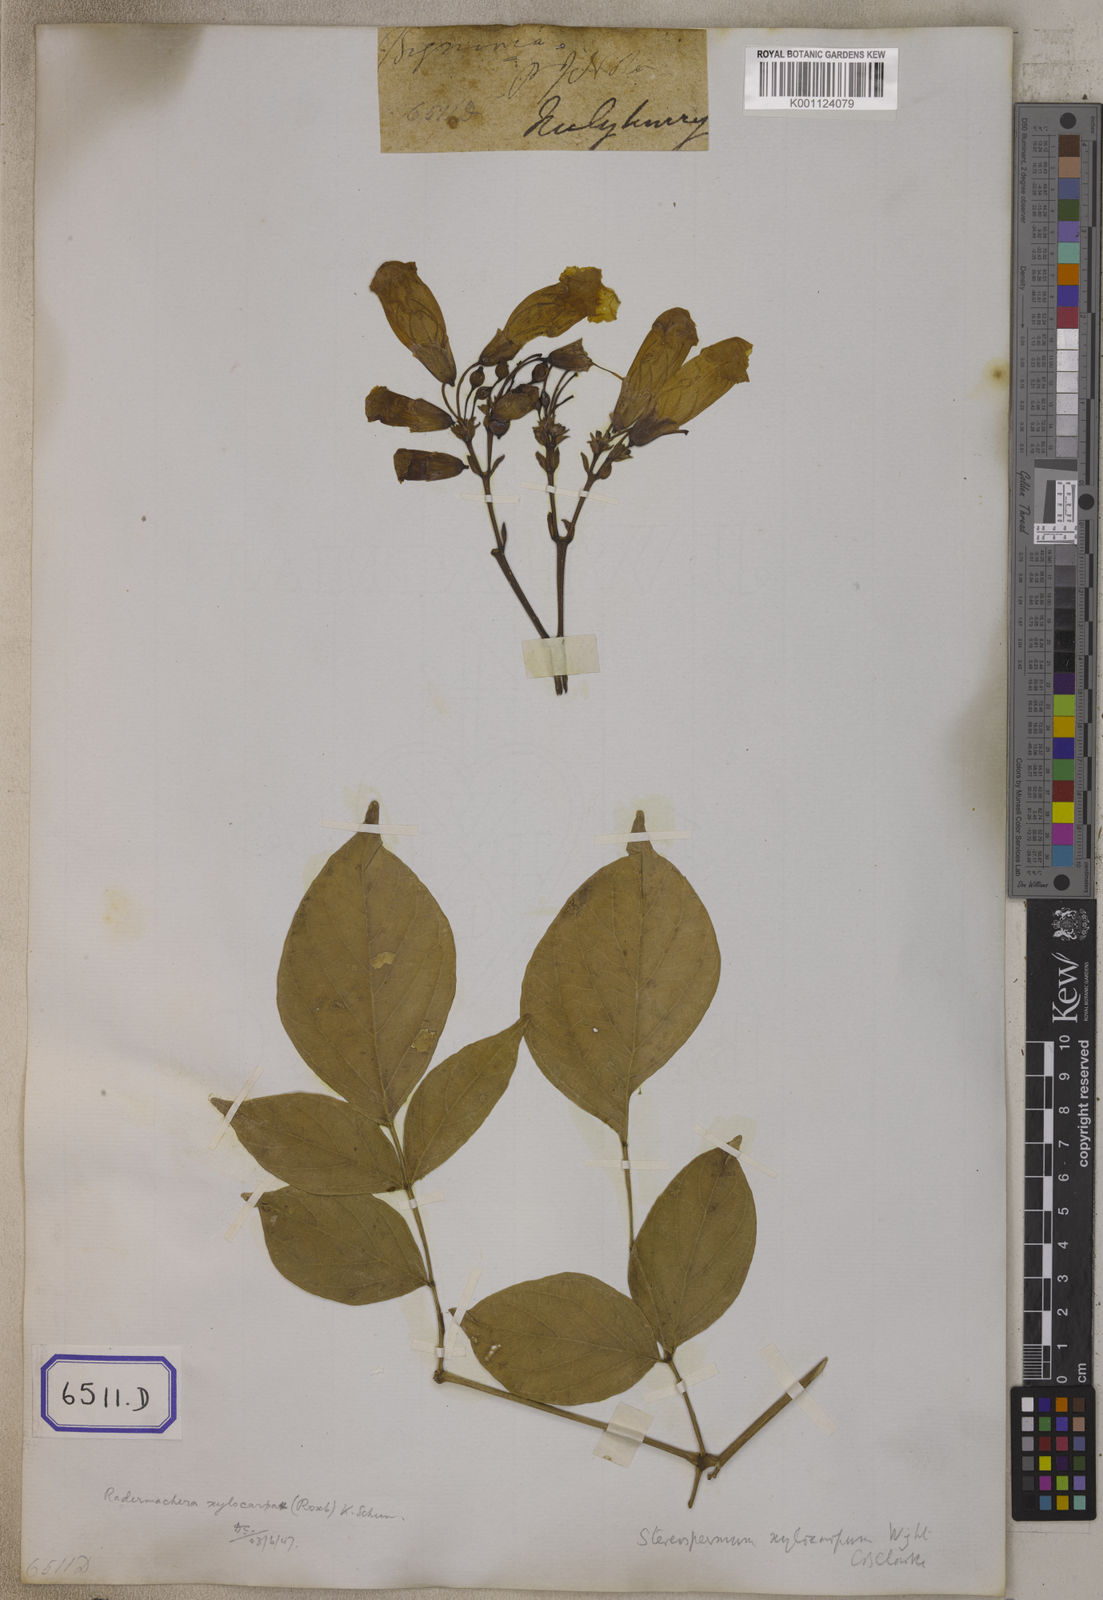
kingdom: Plantae
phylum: Tracheophyta
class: Magnoliopsida
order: Lamiales
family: Bignoniaceae
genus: Radermachera
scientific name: Radermachera xylocarpa
